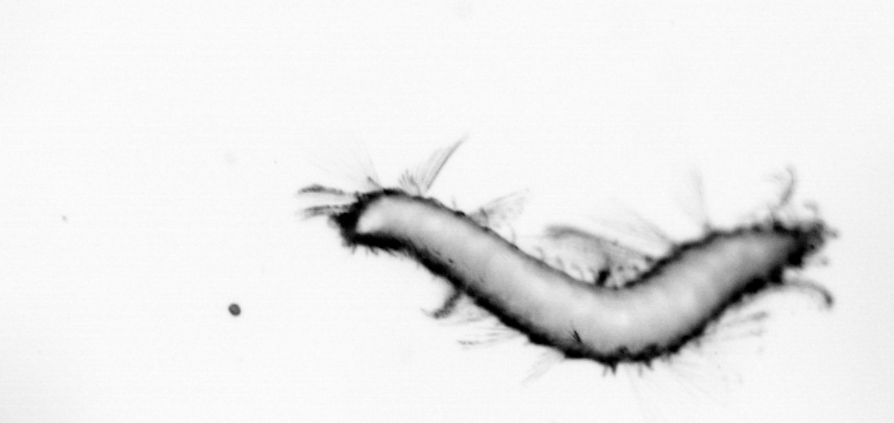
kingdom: Animalia
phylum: Annelida
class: Polychaeta
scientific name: Polychaeta
